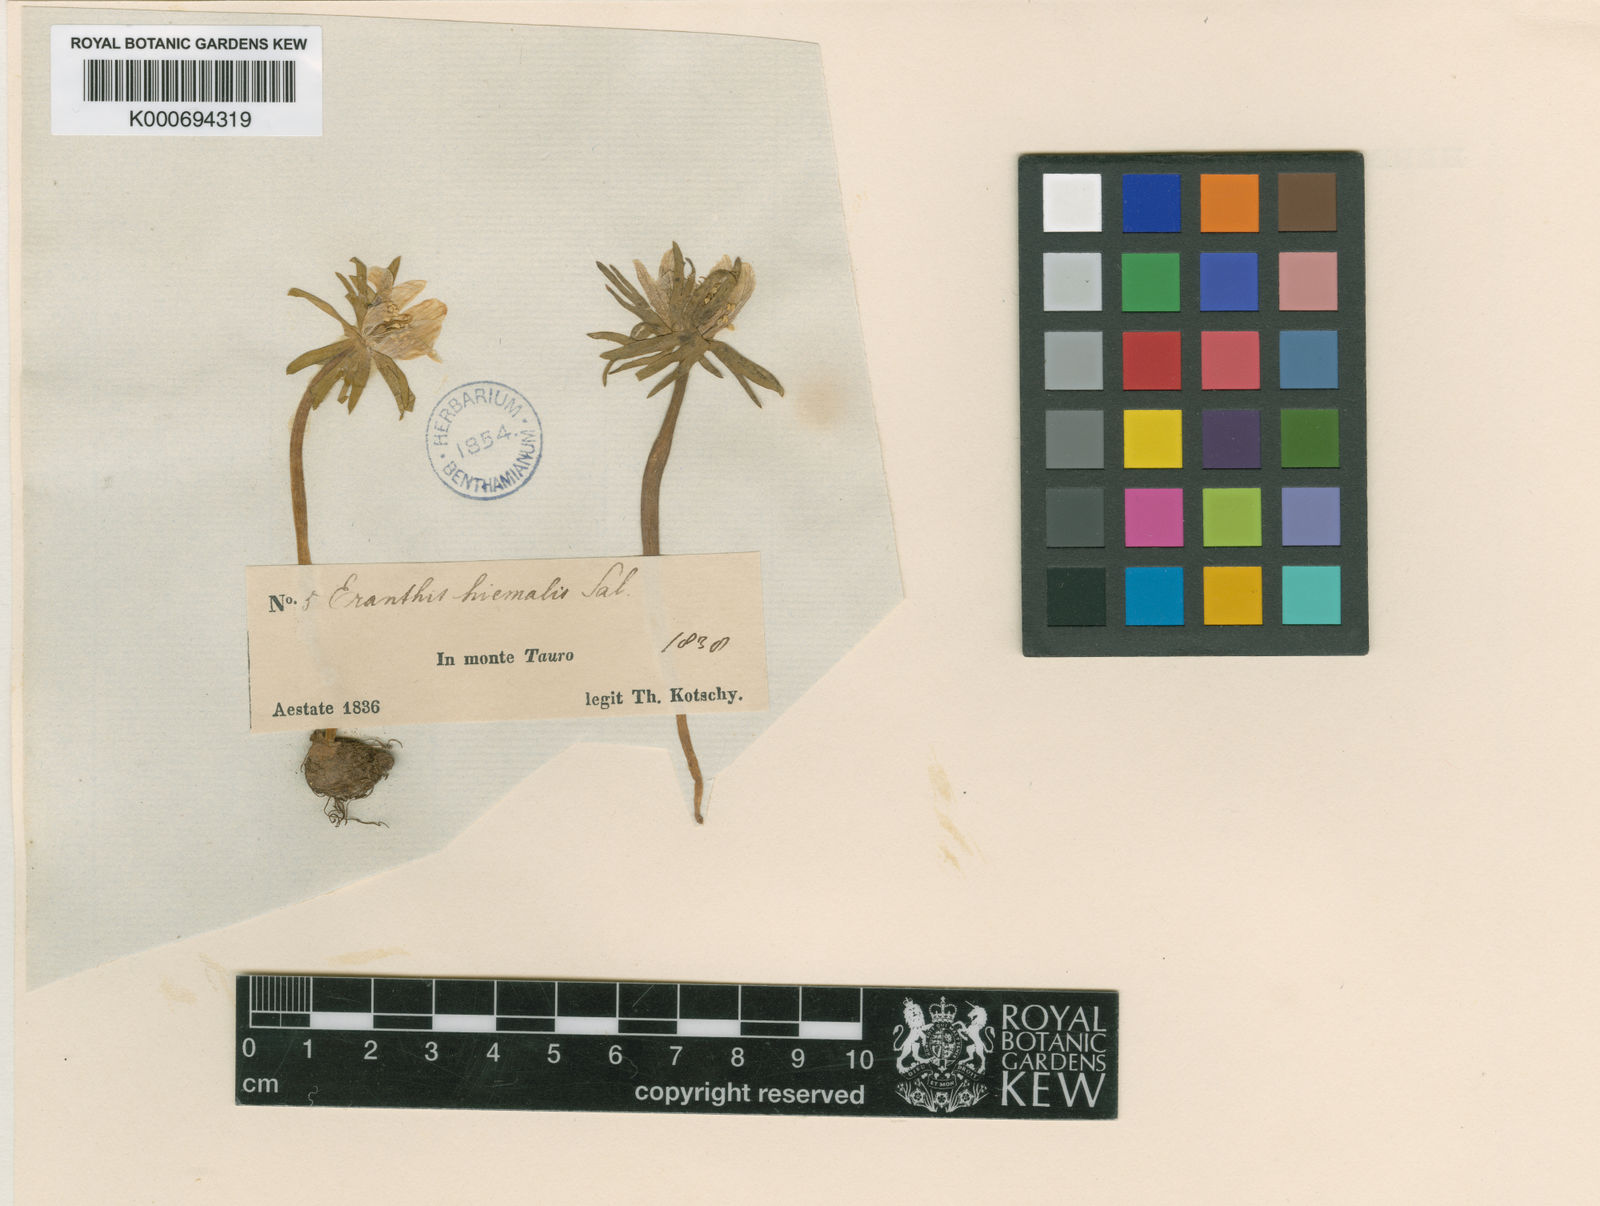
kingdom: Plantae
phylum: Tracheophyta
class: Magnoliopsida
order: Ranunculales
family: Ranunculaceae
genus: Eranthis
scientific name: Eranthis hyemalis
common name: Winter aconite
